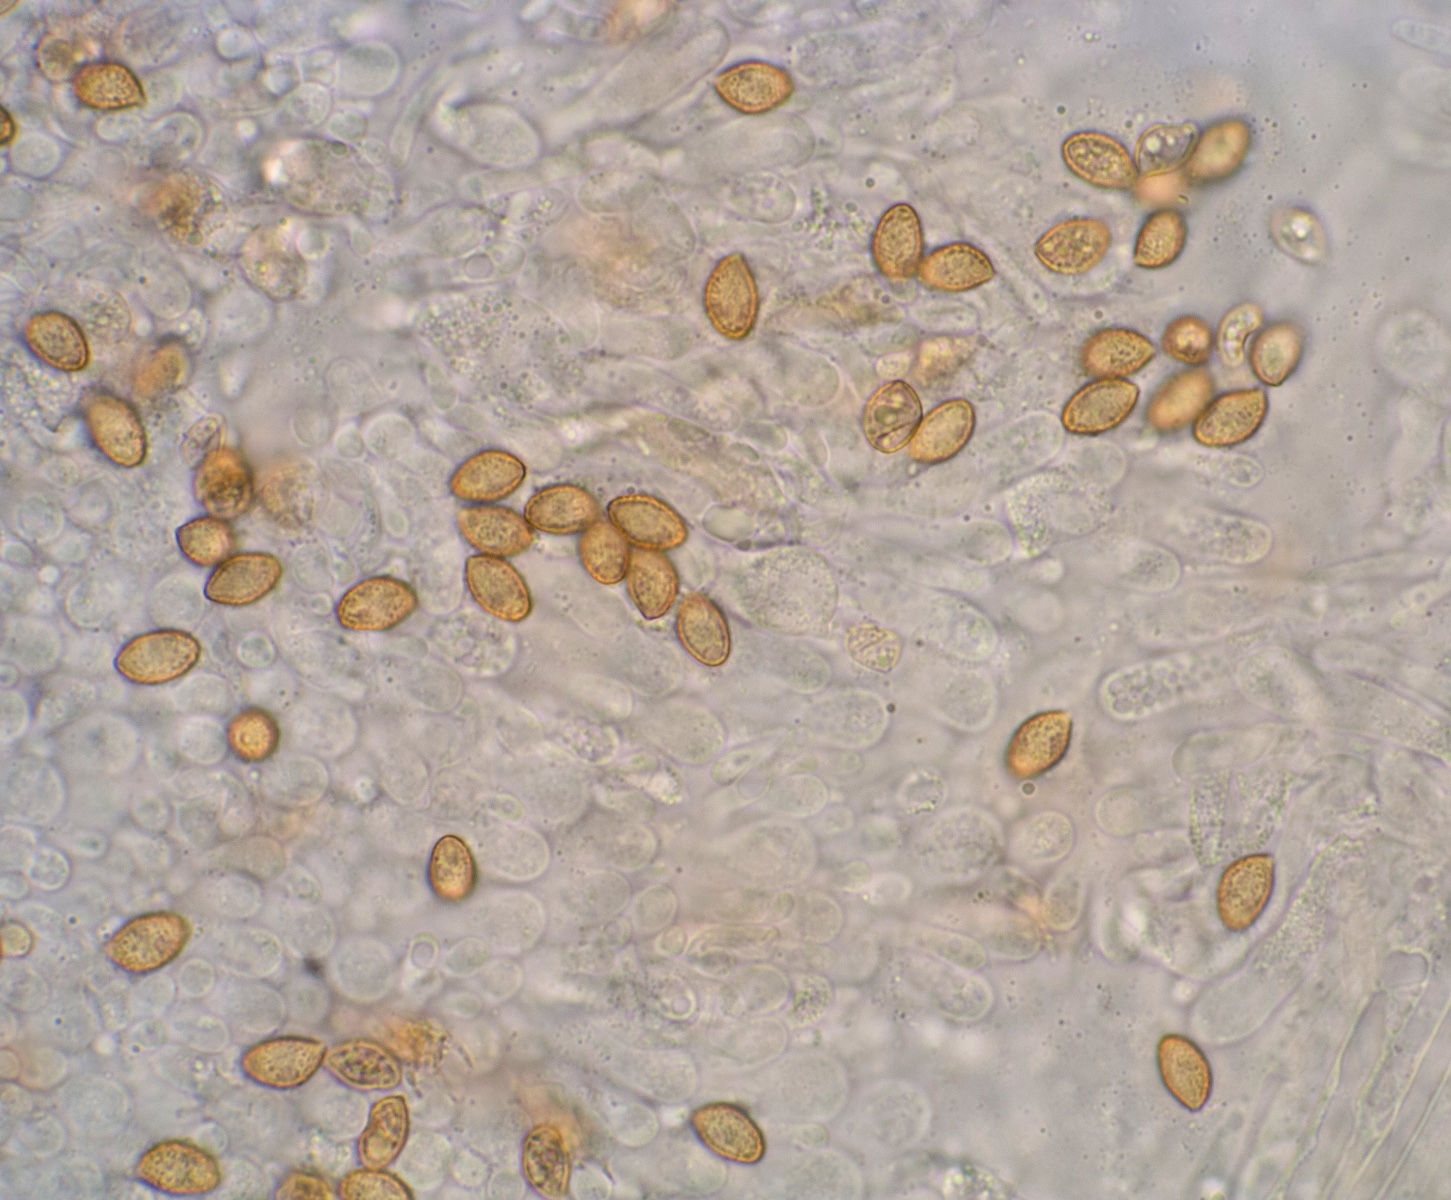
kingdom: Fungi
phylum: Basidiomycota
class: Agaricomycetes
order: Agaricales
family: Cortinariaceae
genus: Cortinarius
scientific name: Cortinarius dolabratus
